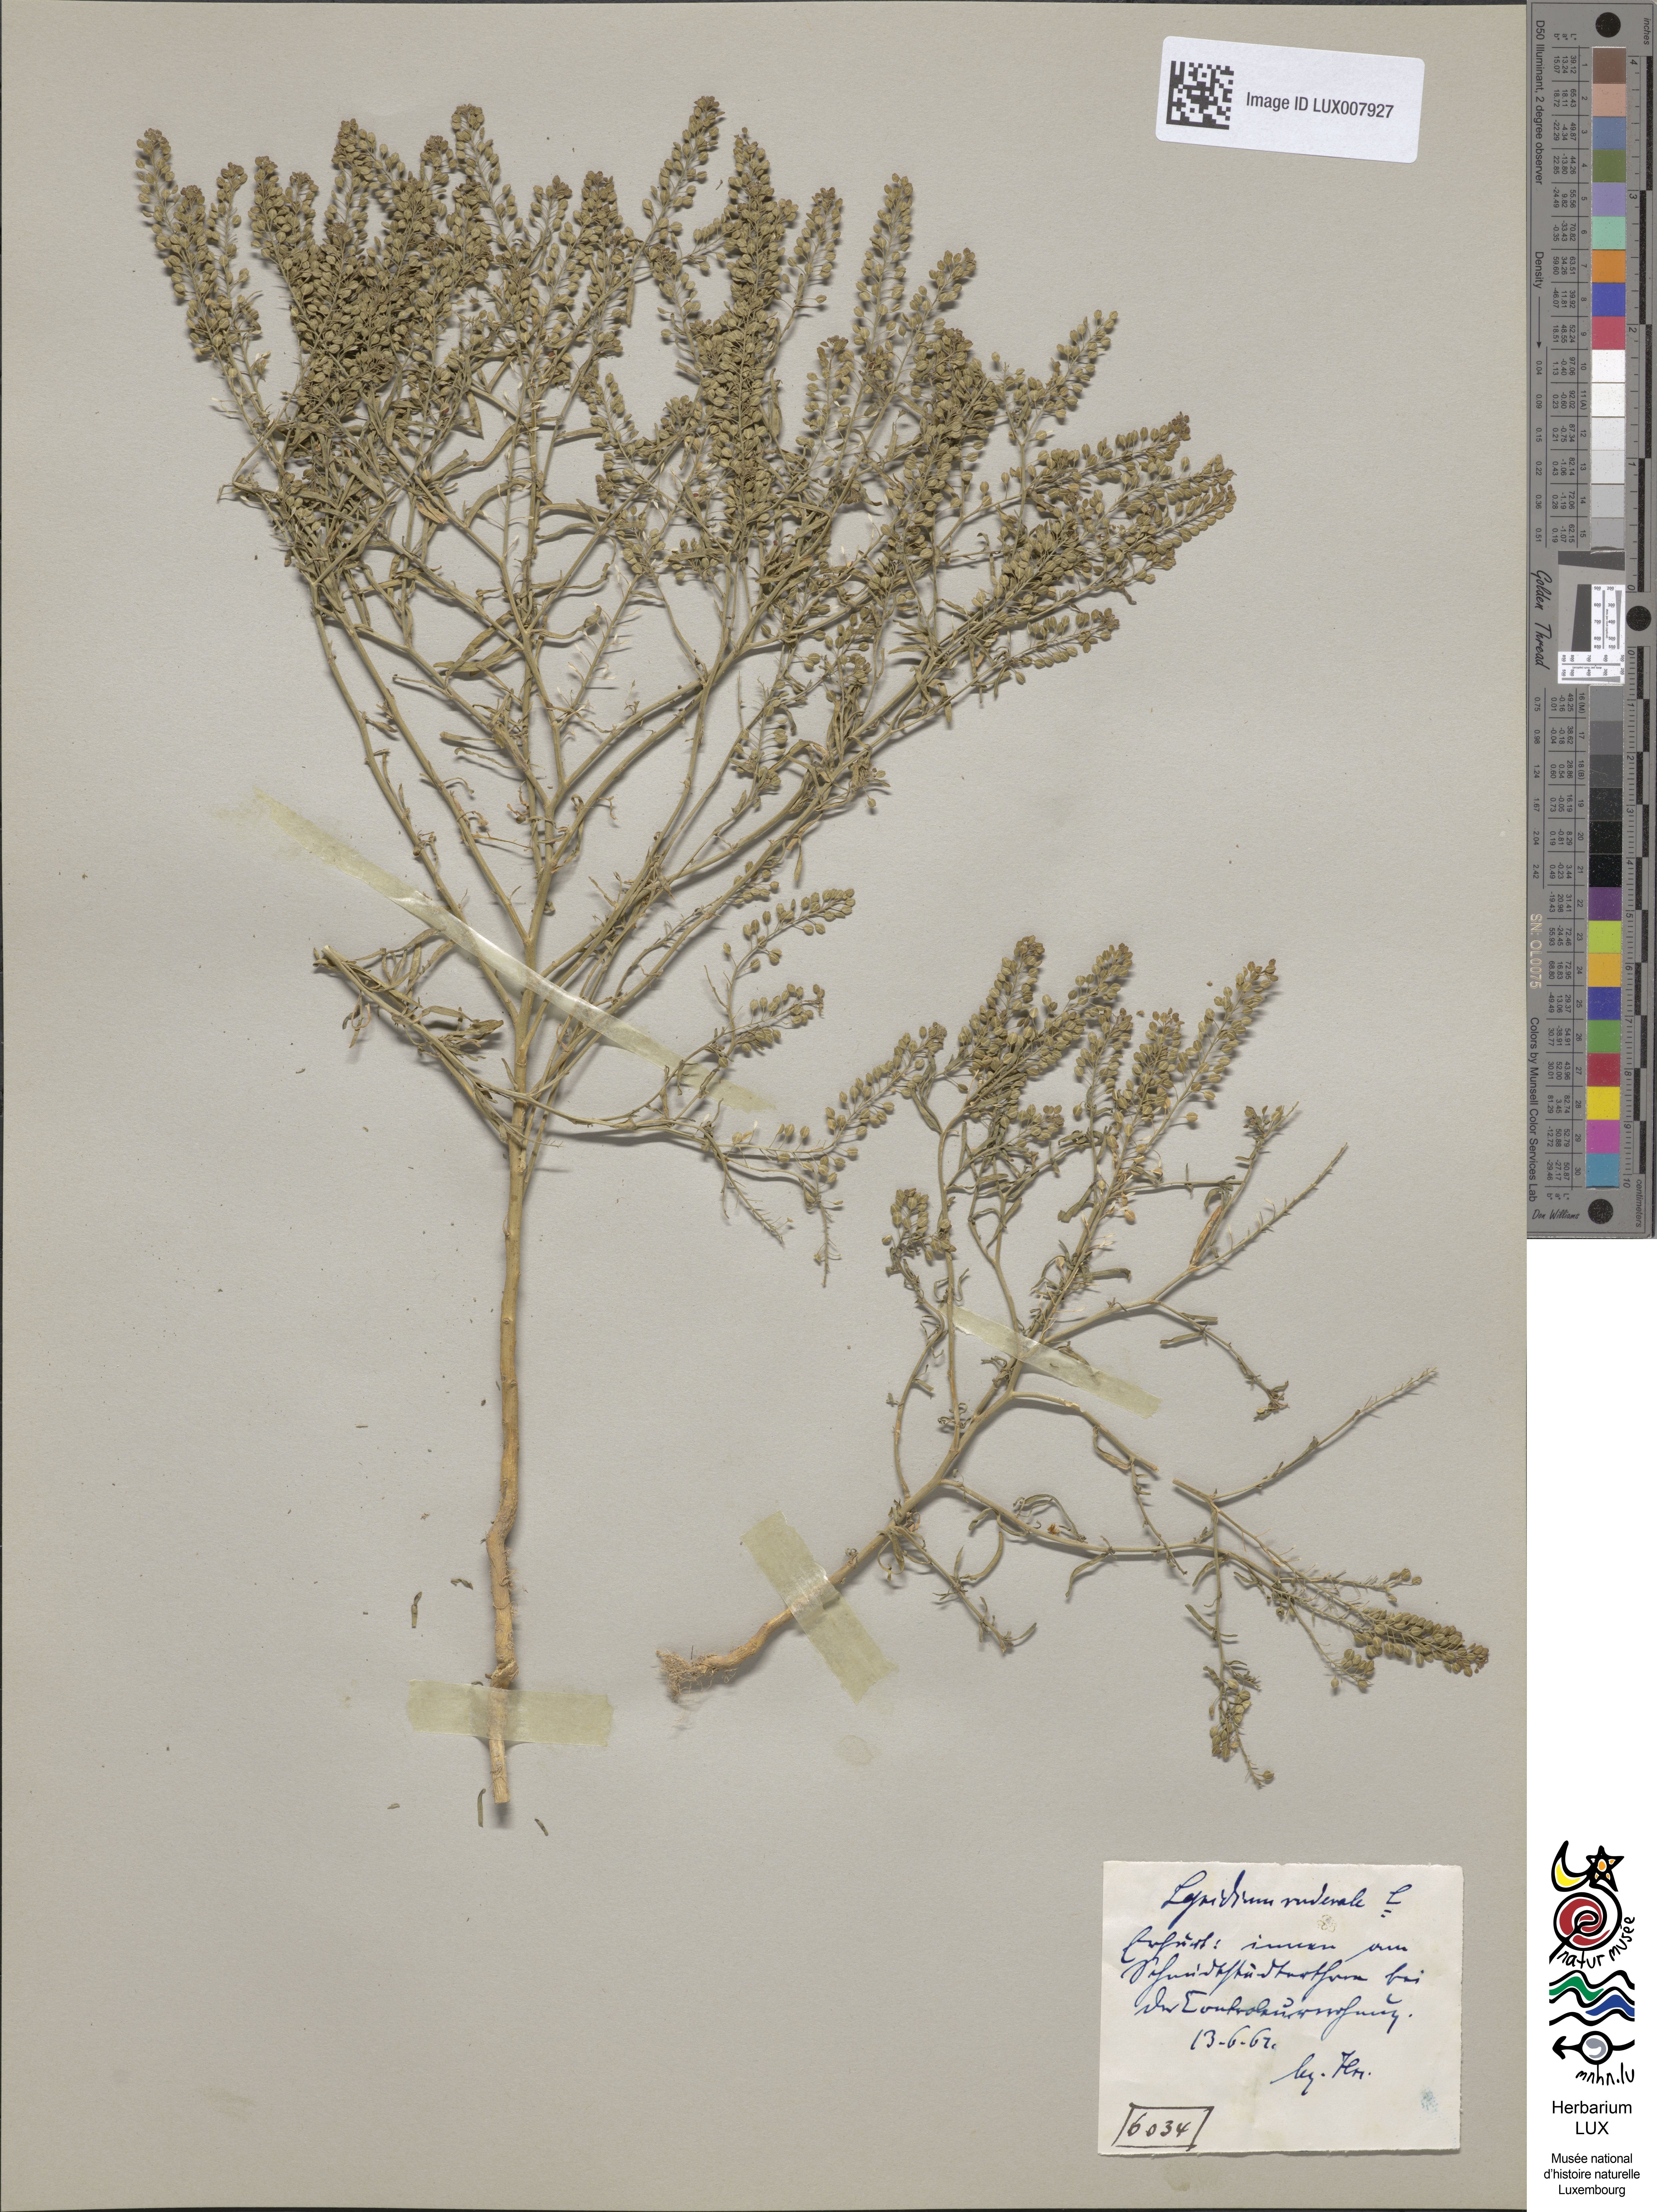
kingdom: Plantae
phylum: Tracheophyta
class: Magnoliopsida
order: Brassicales
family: Brassicaceae
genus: Lepidium
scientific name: Lepidium ruderale
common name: Narrow-leaved pepperwort
